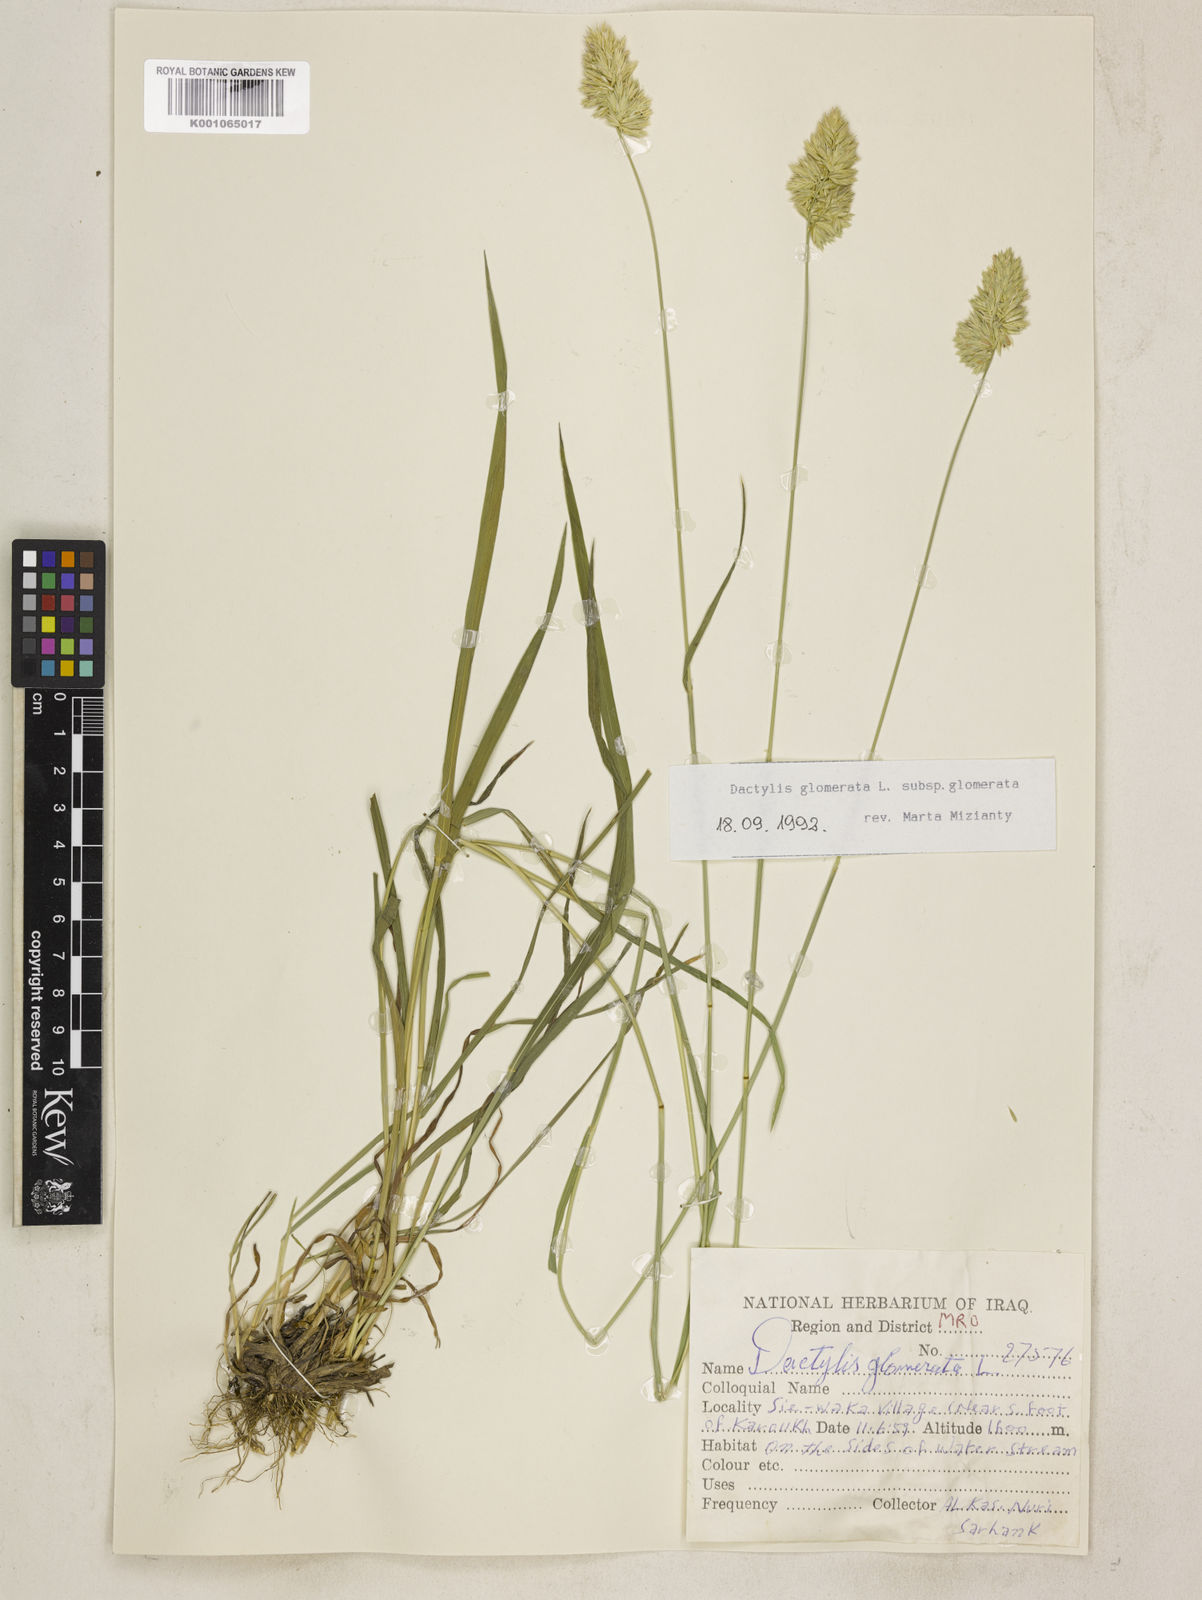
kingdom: Plantae
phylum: Tracheophyta
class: Liliopsida
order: Poales
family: Poaceae
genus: Dactylis
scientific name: Dactylis glomerata
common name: Orchardgrass
